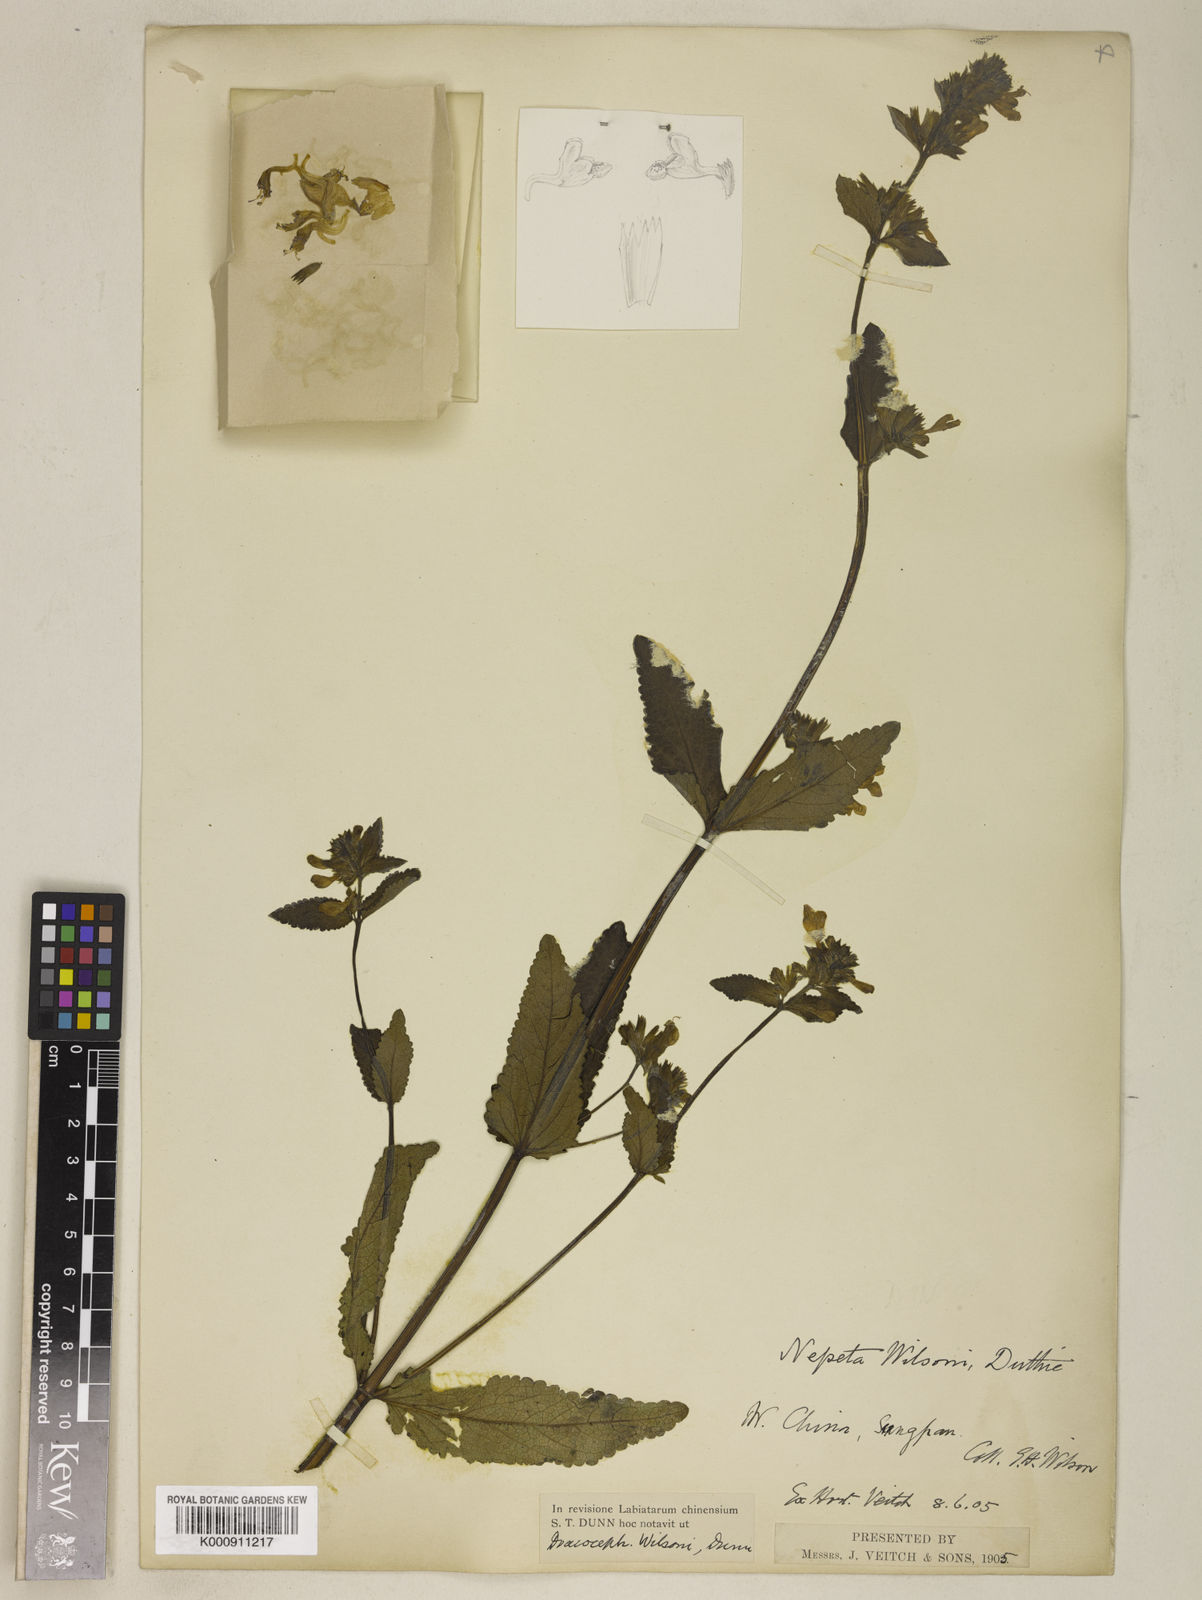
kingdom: Plantae
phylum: Tracheophyta
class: Magnoliopsida
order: Lamiales
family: Lamiaceae
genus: Nepeta
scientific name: Nepeta wilsonii
